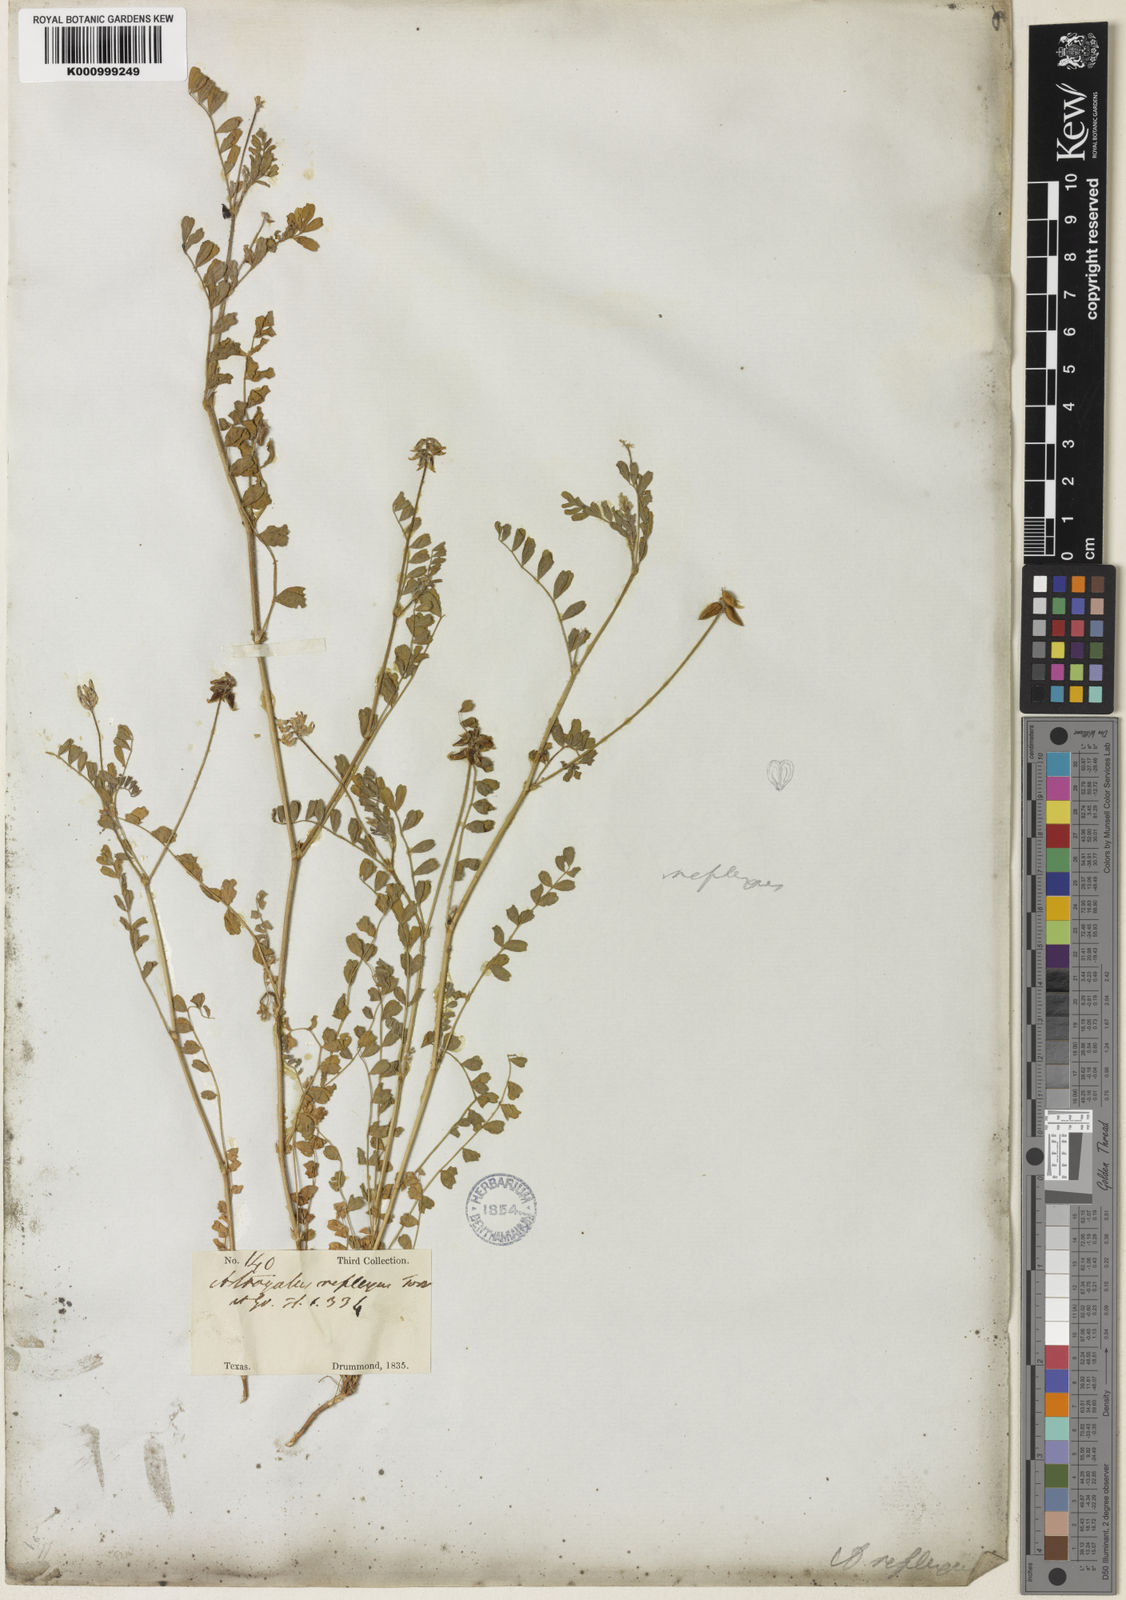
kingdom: Plantae
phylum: Tracheophyta
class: Magnoliopsida
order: Fabales
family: Fabaceae
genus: Astragalus
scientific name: Astragalus reflexus
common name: Texas milk-vetch
